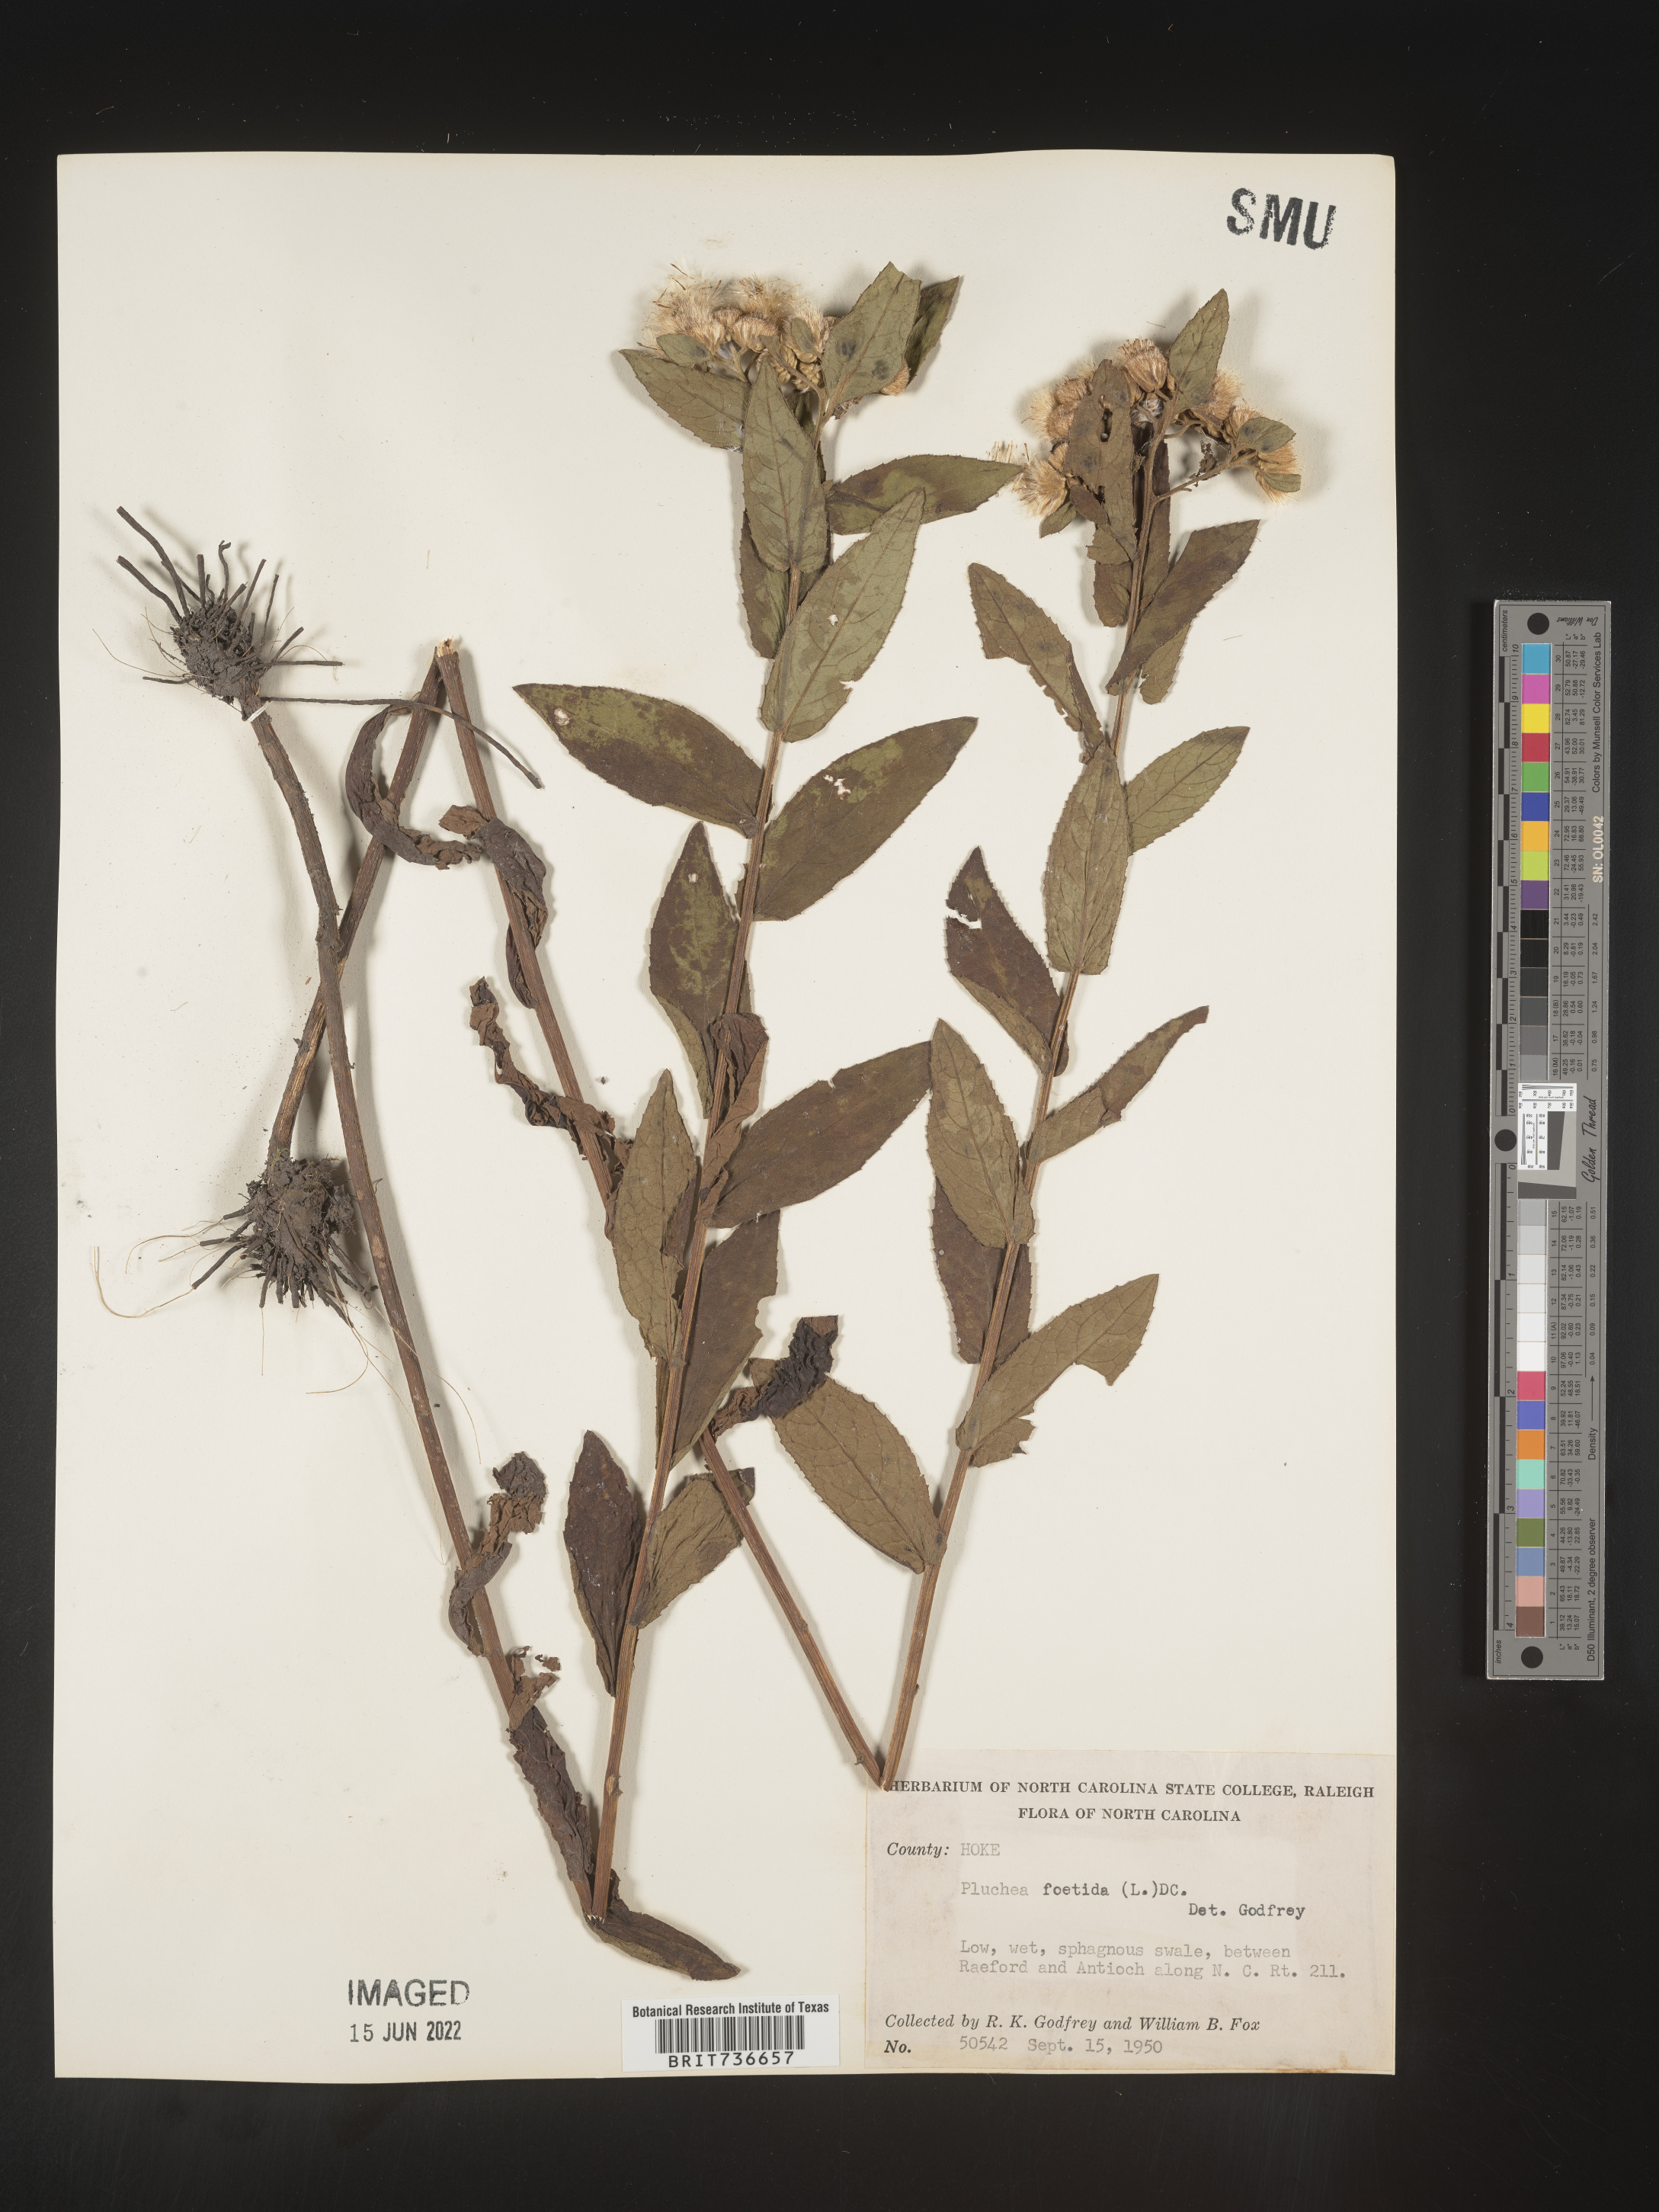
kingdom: Plantae
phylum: Tracheophyta
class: Magnoliopsida
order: Asterales
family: Asteraceae
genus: Pluchea
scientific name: Pluchea foetida
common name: Stinking camphorweed
